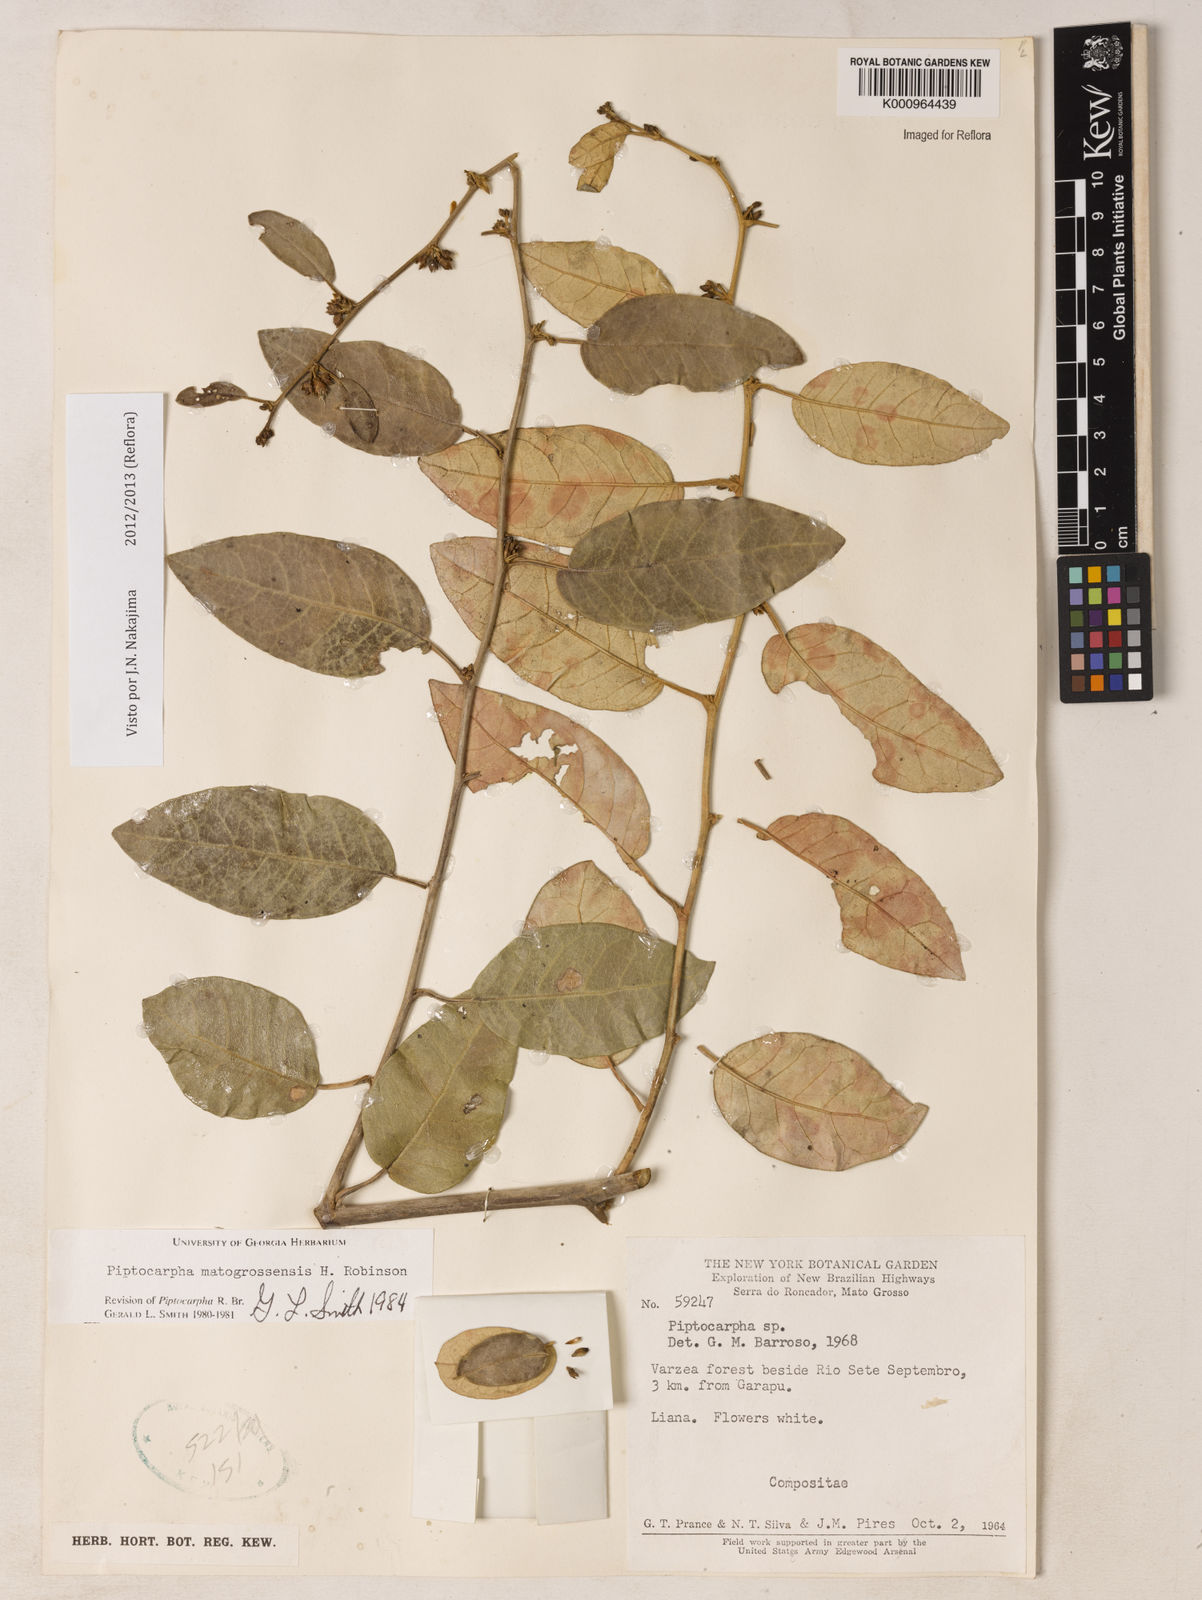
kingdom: Plantae
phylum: Tracheophyta
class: Magnoliopsida
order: Asterales
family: Asteraceae
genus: Piptocarpha
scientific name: Piptocarpha matogrossensis
